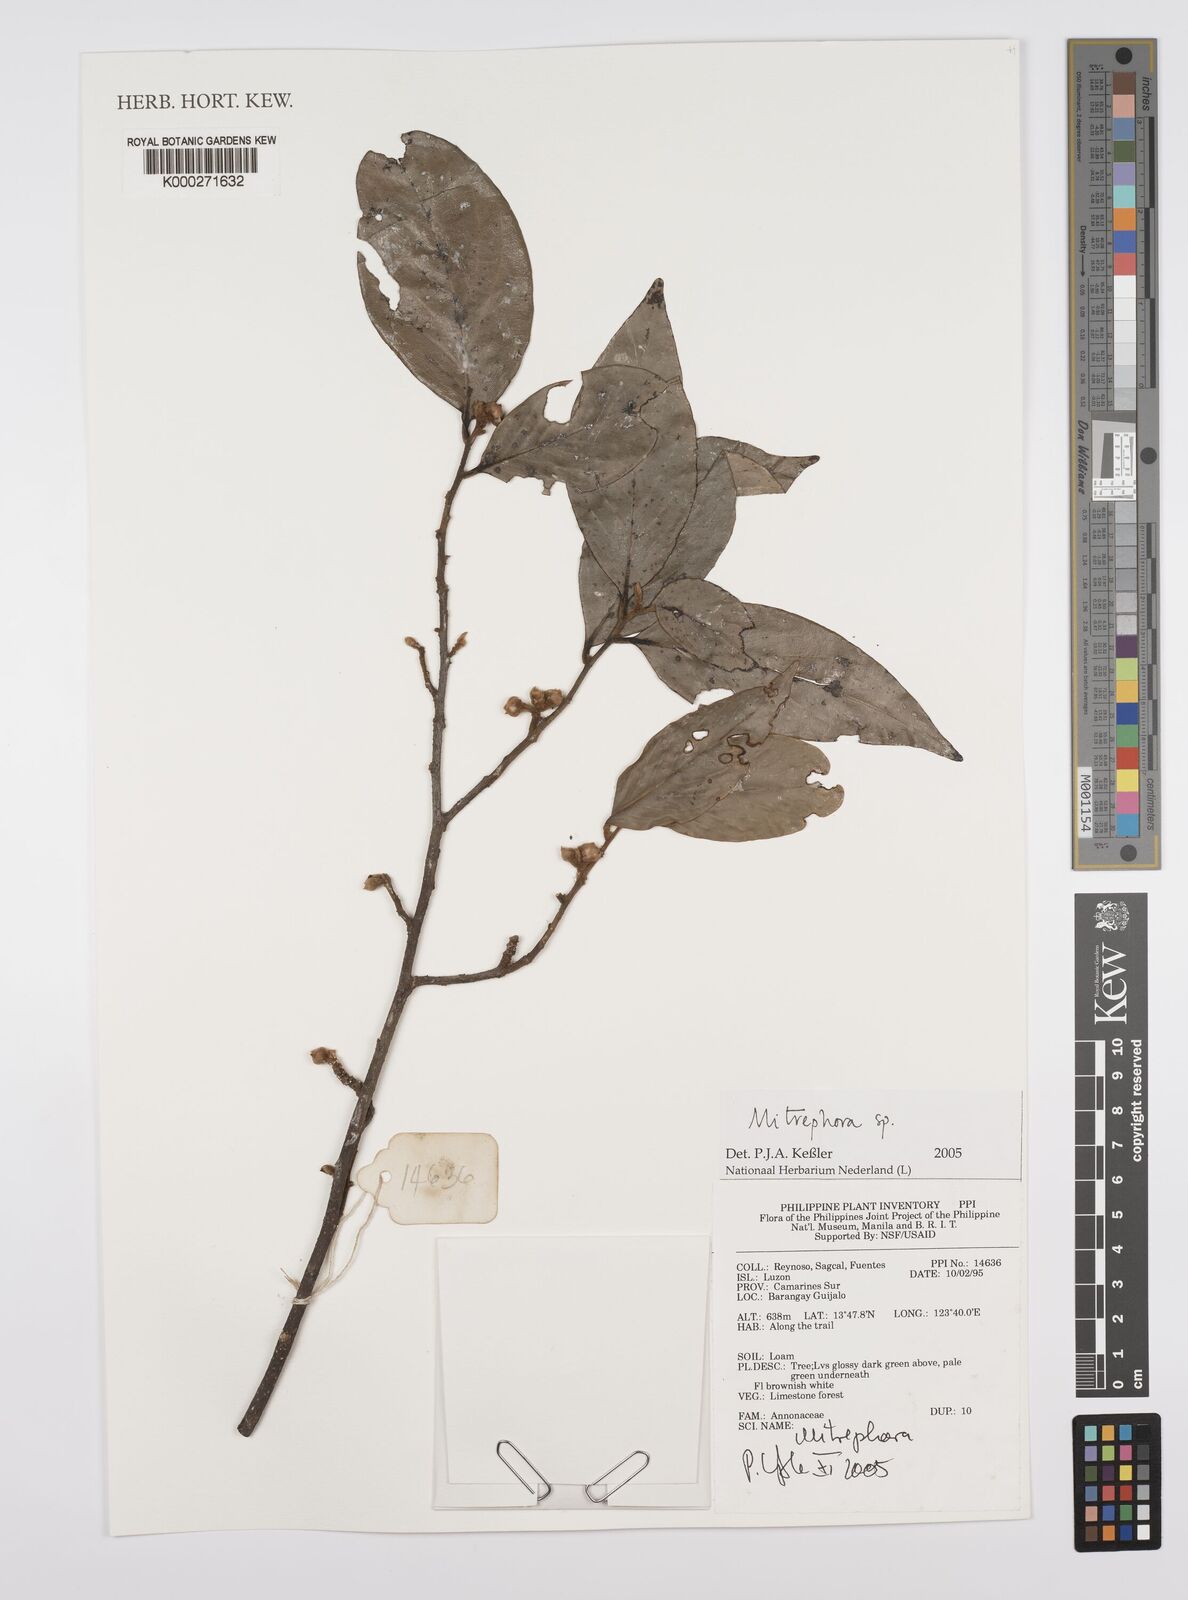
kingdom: Plantae
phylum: Tracheophyta
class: Magnoliopsida
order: Magnoliales
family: Annonaceae
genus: Mitrephora
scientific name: Mitrephora
